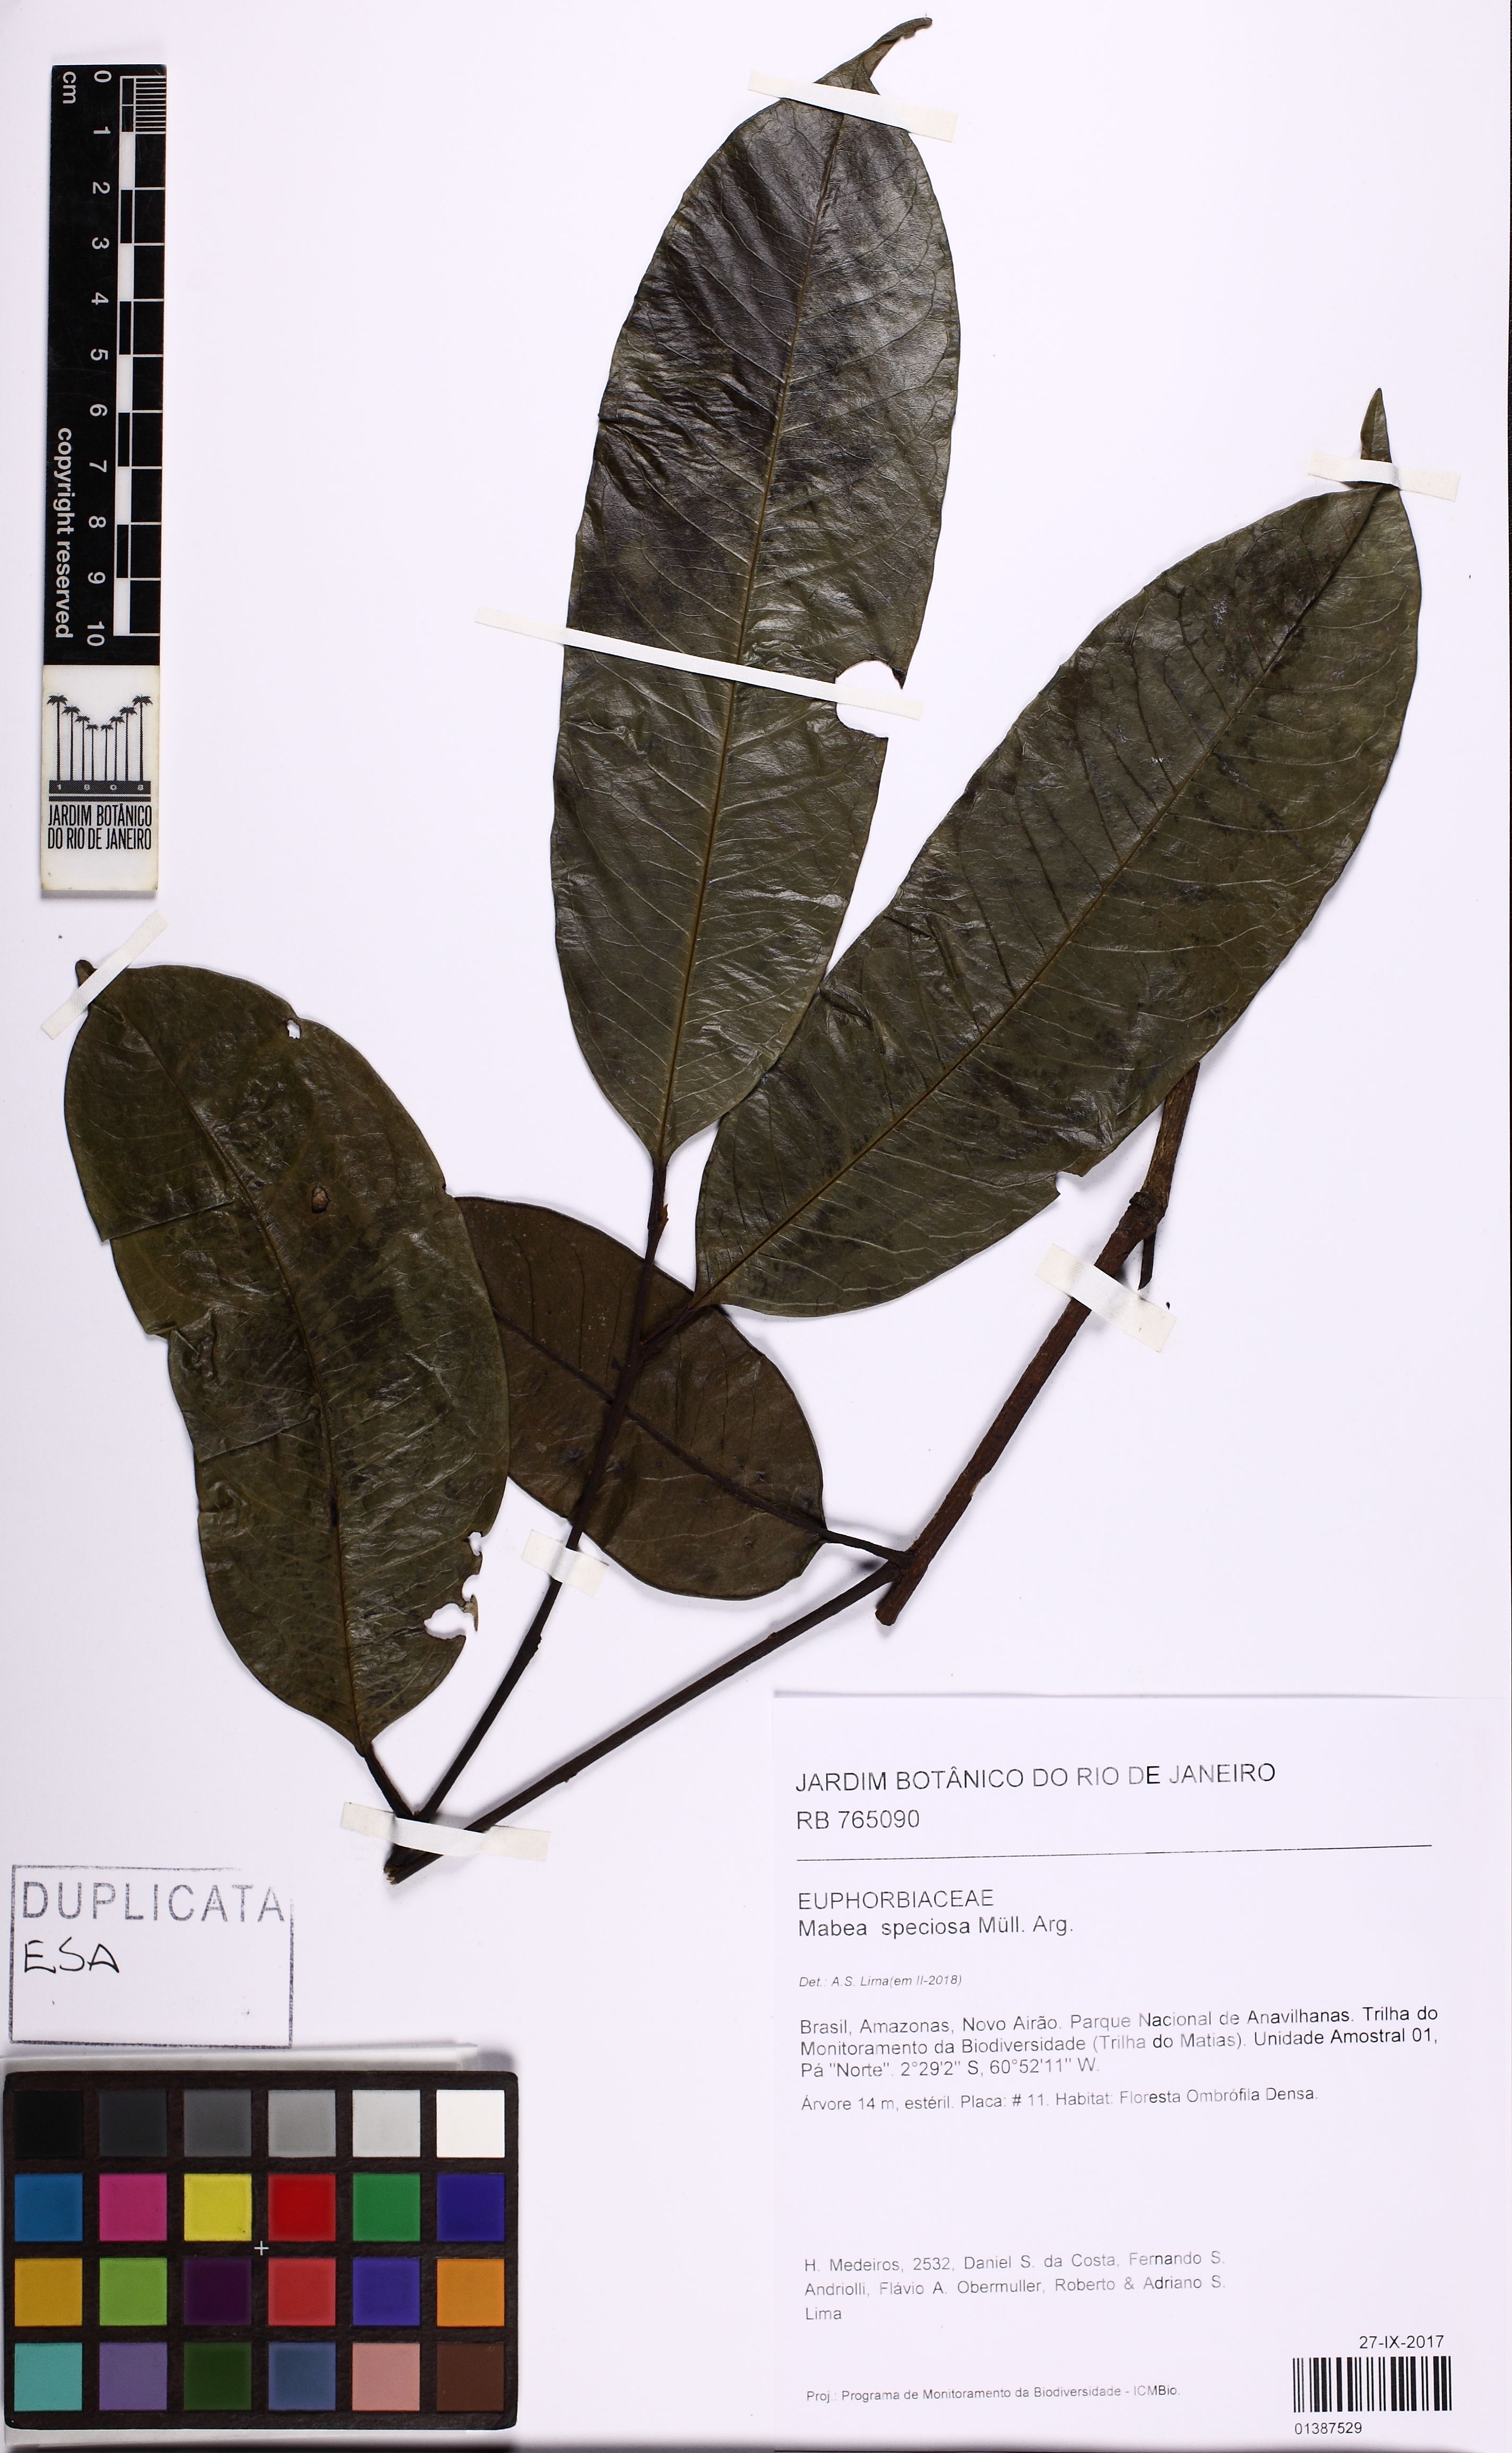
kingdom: Plantae
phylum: Tracheophyta
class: Magnoliopsida
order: Malpighiales
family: Euphorbiaceae
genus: Mabea
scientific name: Mabea speciosa
